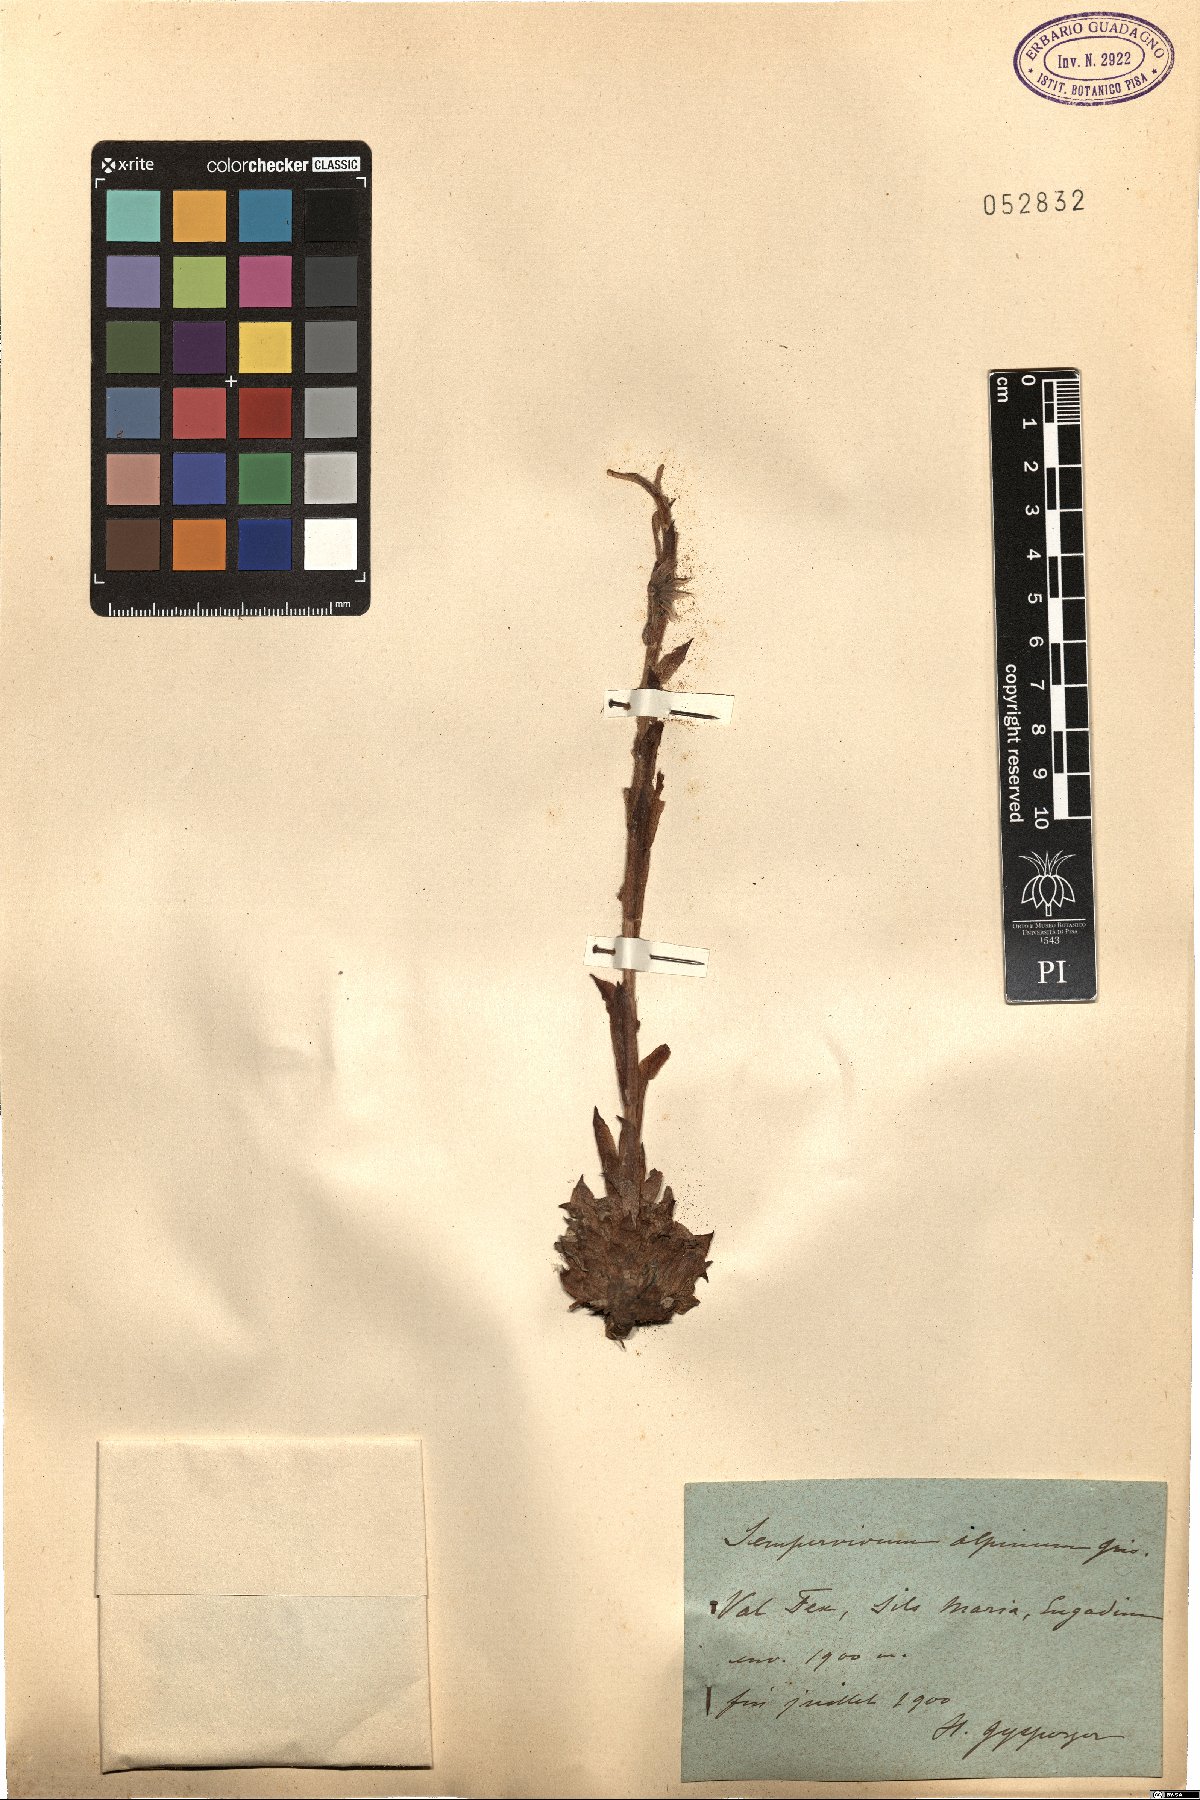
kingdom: Plantae
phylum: Tracheophyta
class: Magnoliopsida
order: Saxifragales
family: Crassulaceae
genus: Sempervivum
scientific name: Sempervivum tectorum
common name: House-leek
